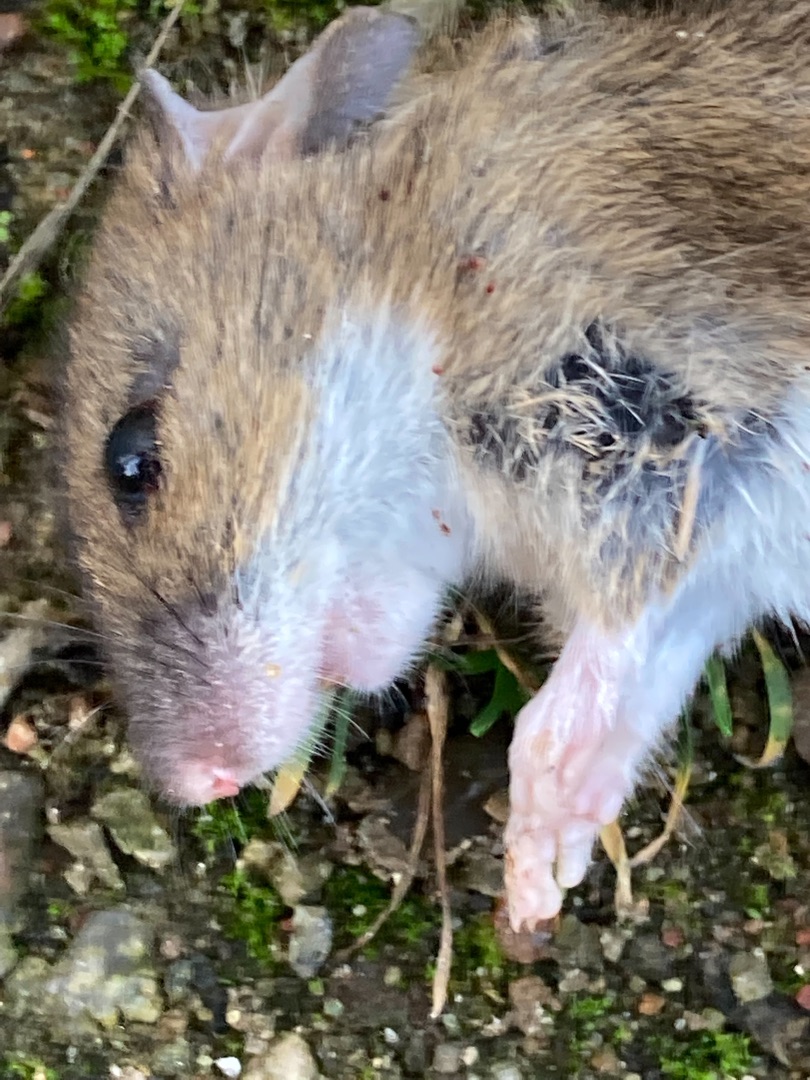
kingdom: Animalia
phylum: Chordata
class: Mammalia
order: Rodentia
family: Muridae
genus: Apodemus
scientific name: Apodemus flavicollis
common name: Halsbåndmus
